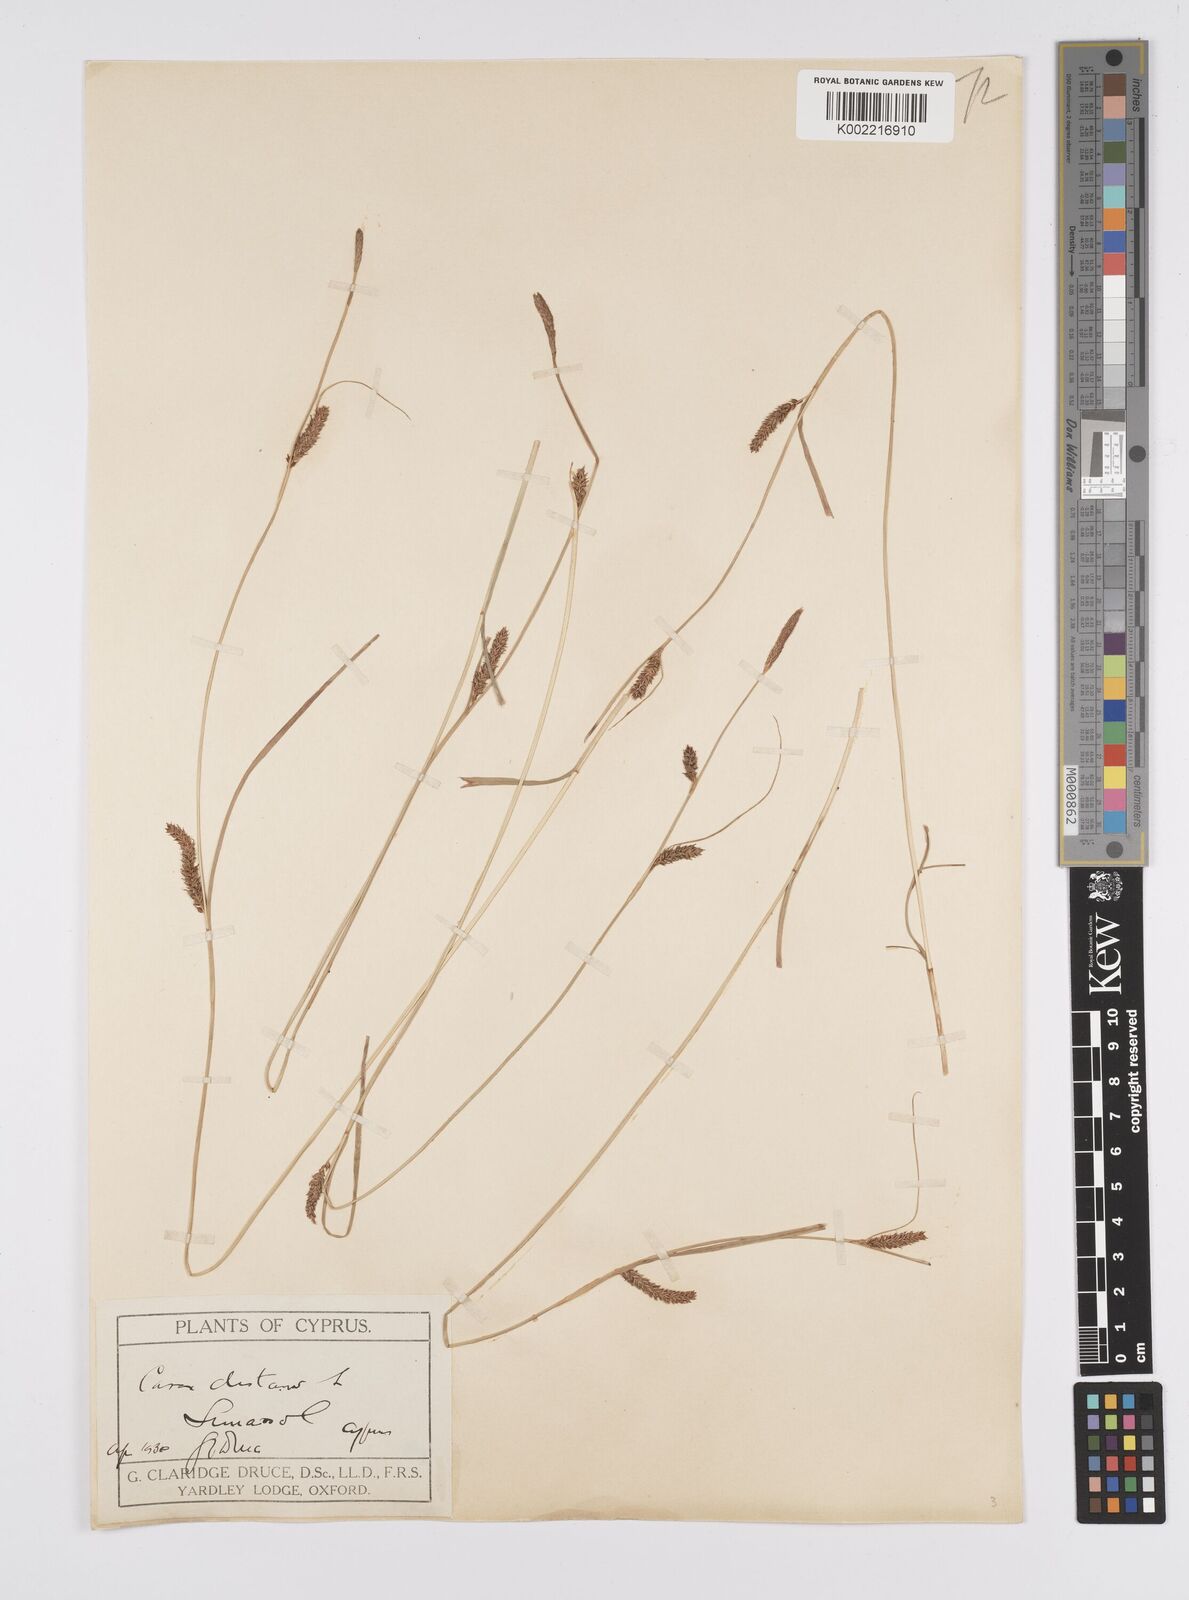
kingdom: Plantae
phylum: Tracheophyta
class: Liliopsida
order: Poales
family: Cyperaceae
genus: Carex
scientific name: Carex distans
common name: Distant sedge
